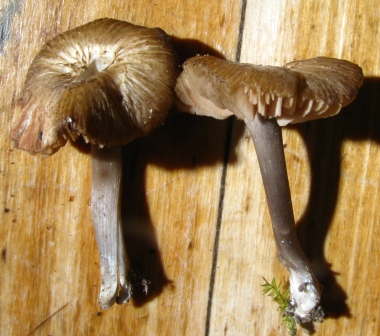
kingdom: Fungi
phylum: Basidiomycota
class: Agaricomycetes
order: Agaricales
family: Entolomataceae
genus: Entoloma
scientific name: Entoloma
